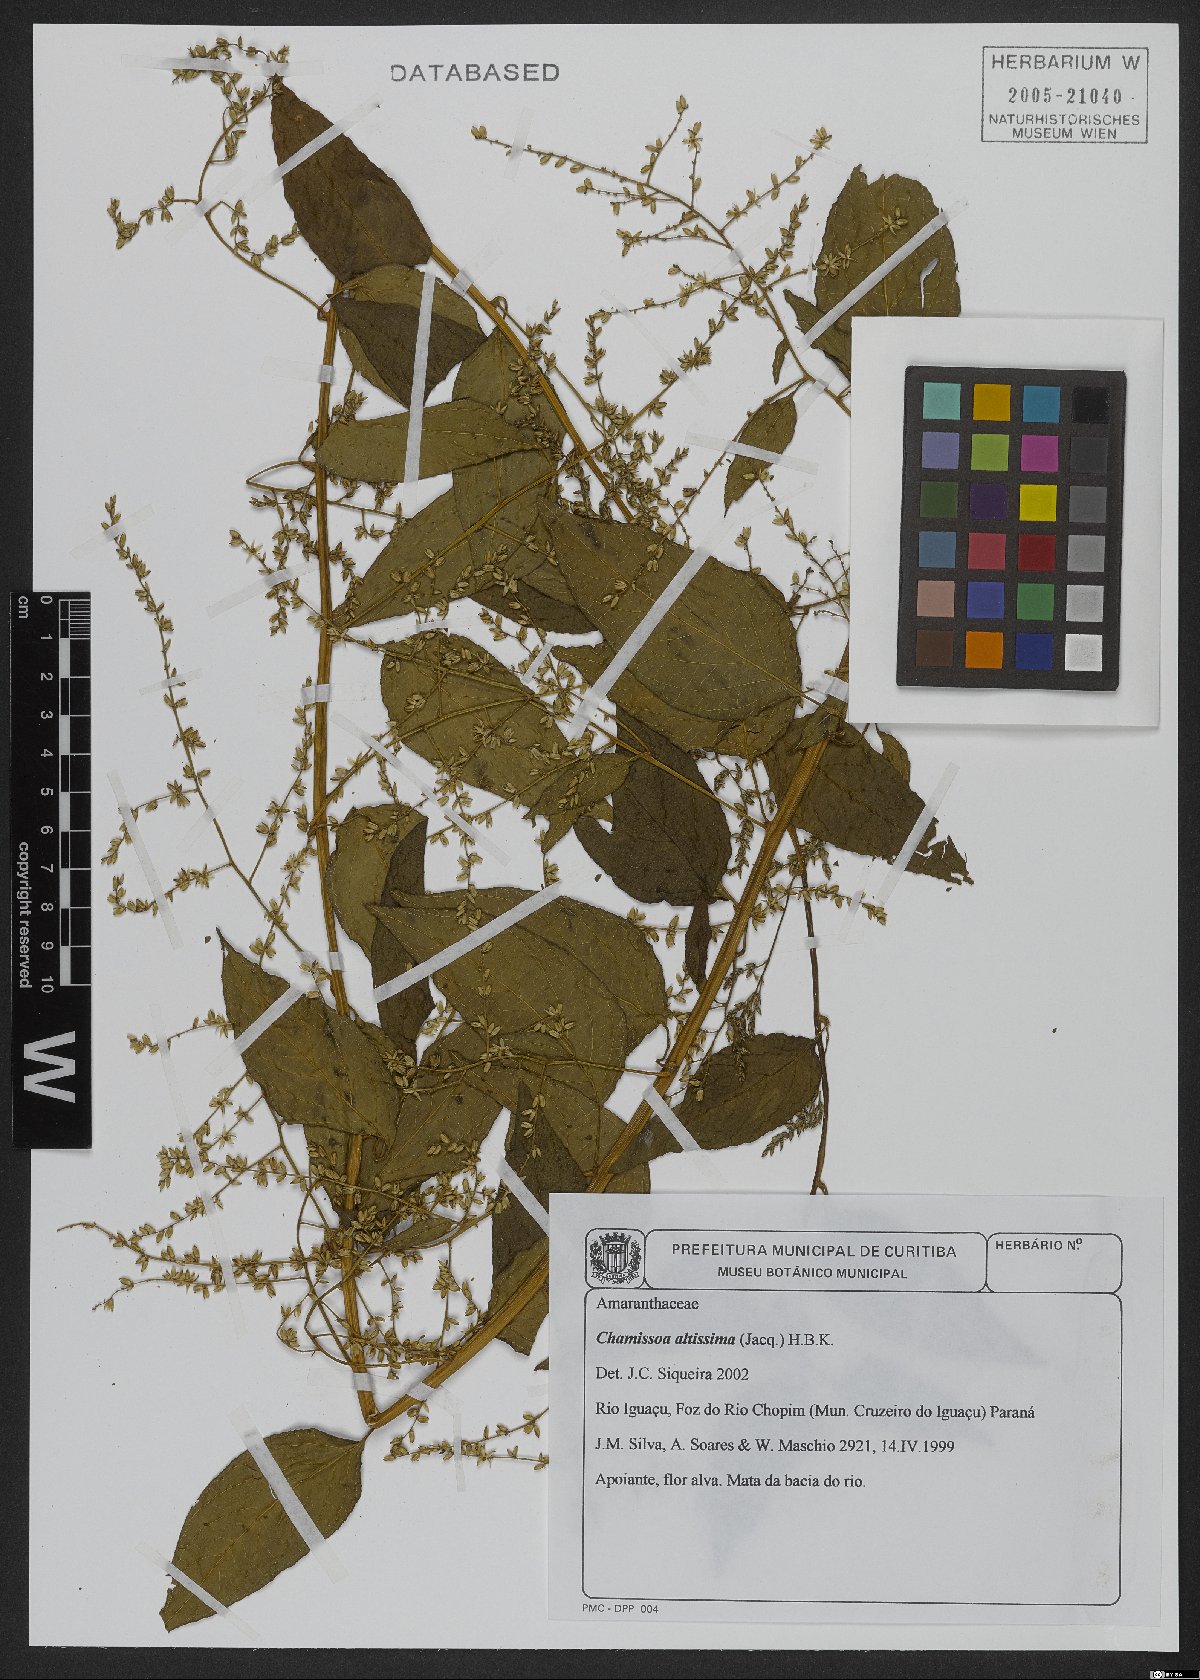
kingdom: Plantae
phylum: Tracheophyta
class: Magnoliopsida
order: Caryophyllales
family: Amaranthaceae
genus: Chamissoa
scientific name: Chamissoa altissima
